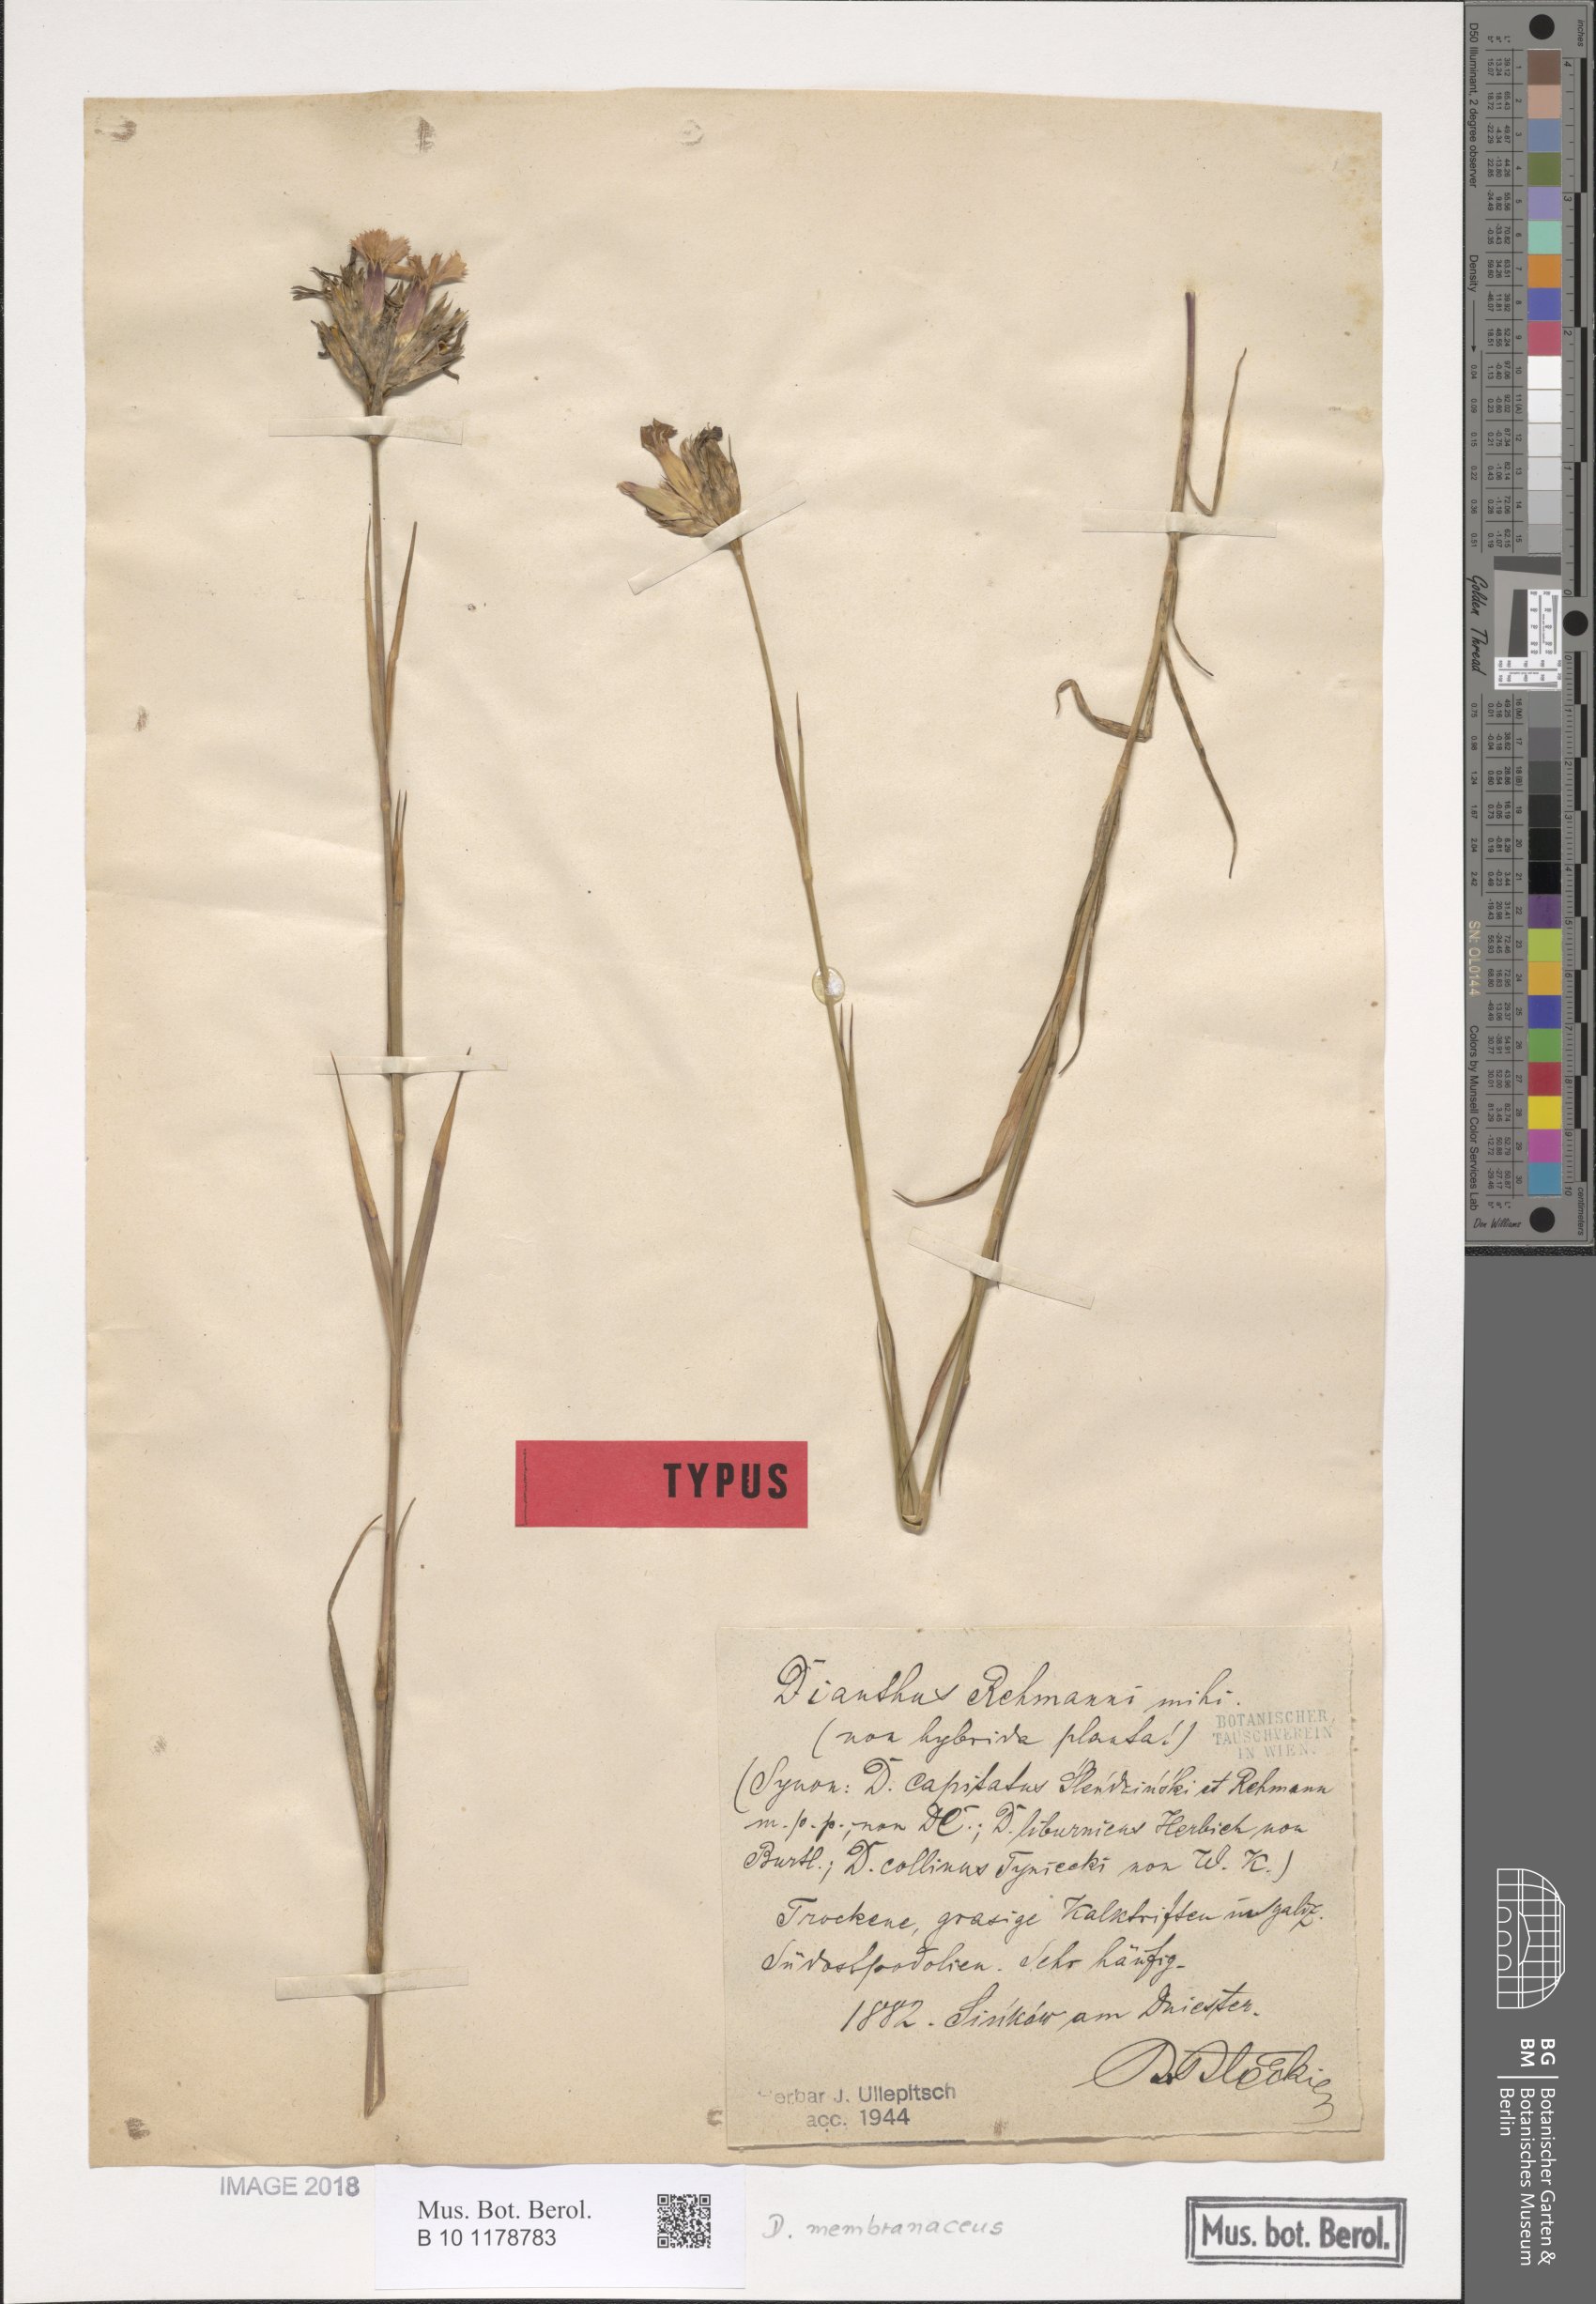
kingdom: Plantae
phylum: Tracheophyta
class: Magnoliopsida
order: Caryophyllales
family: Caryophyllaceae
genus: Dianthus
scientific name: Dianthus membranaceus
